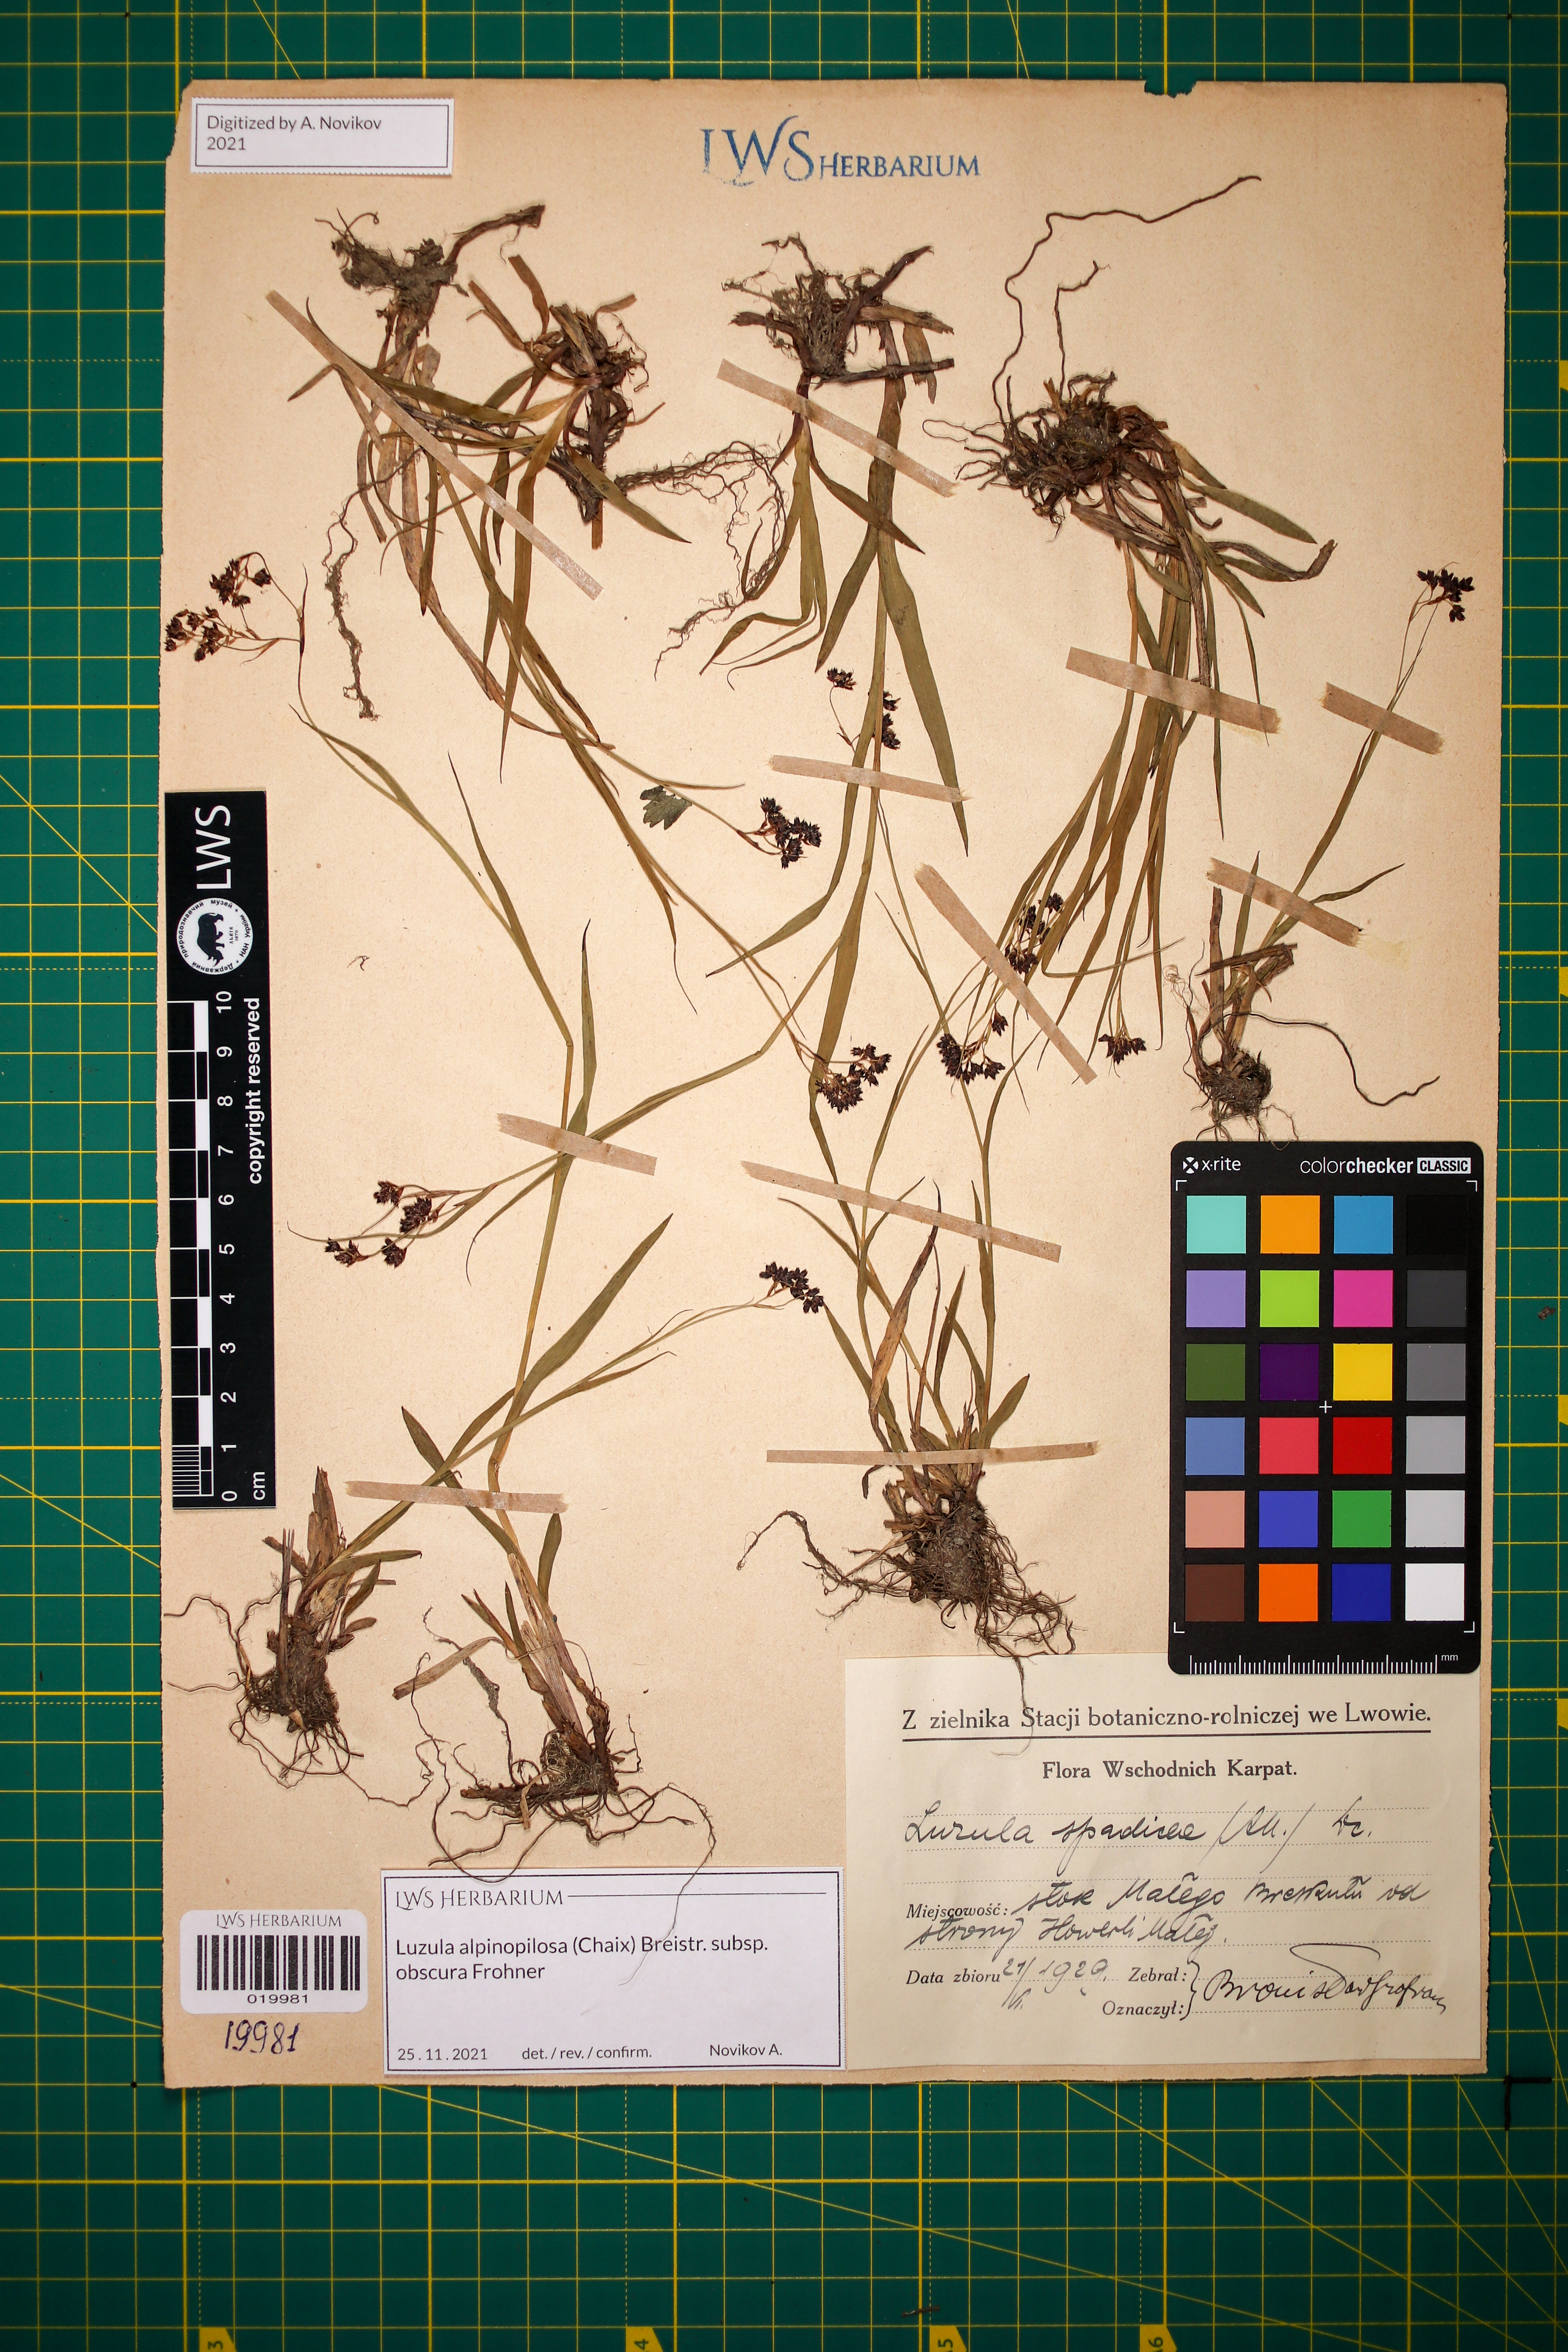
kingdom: Plantae
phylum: Tracheophyta
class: Liliopsida
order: Poales
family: Juncaceae
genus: Luzula
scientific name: Luzula alpinopilosa
